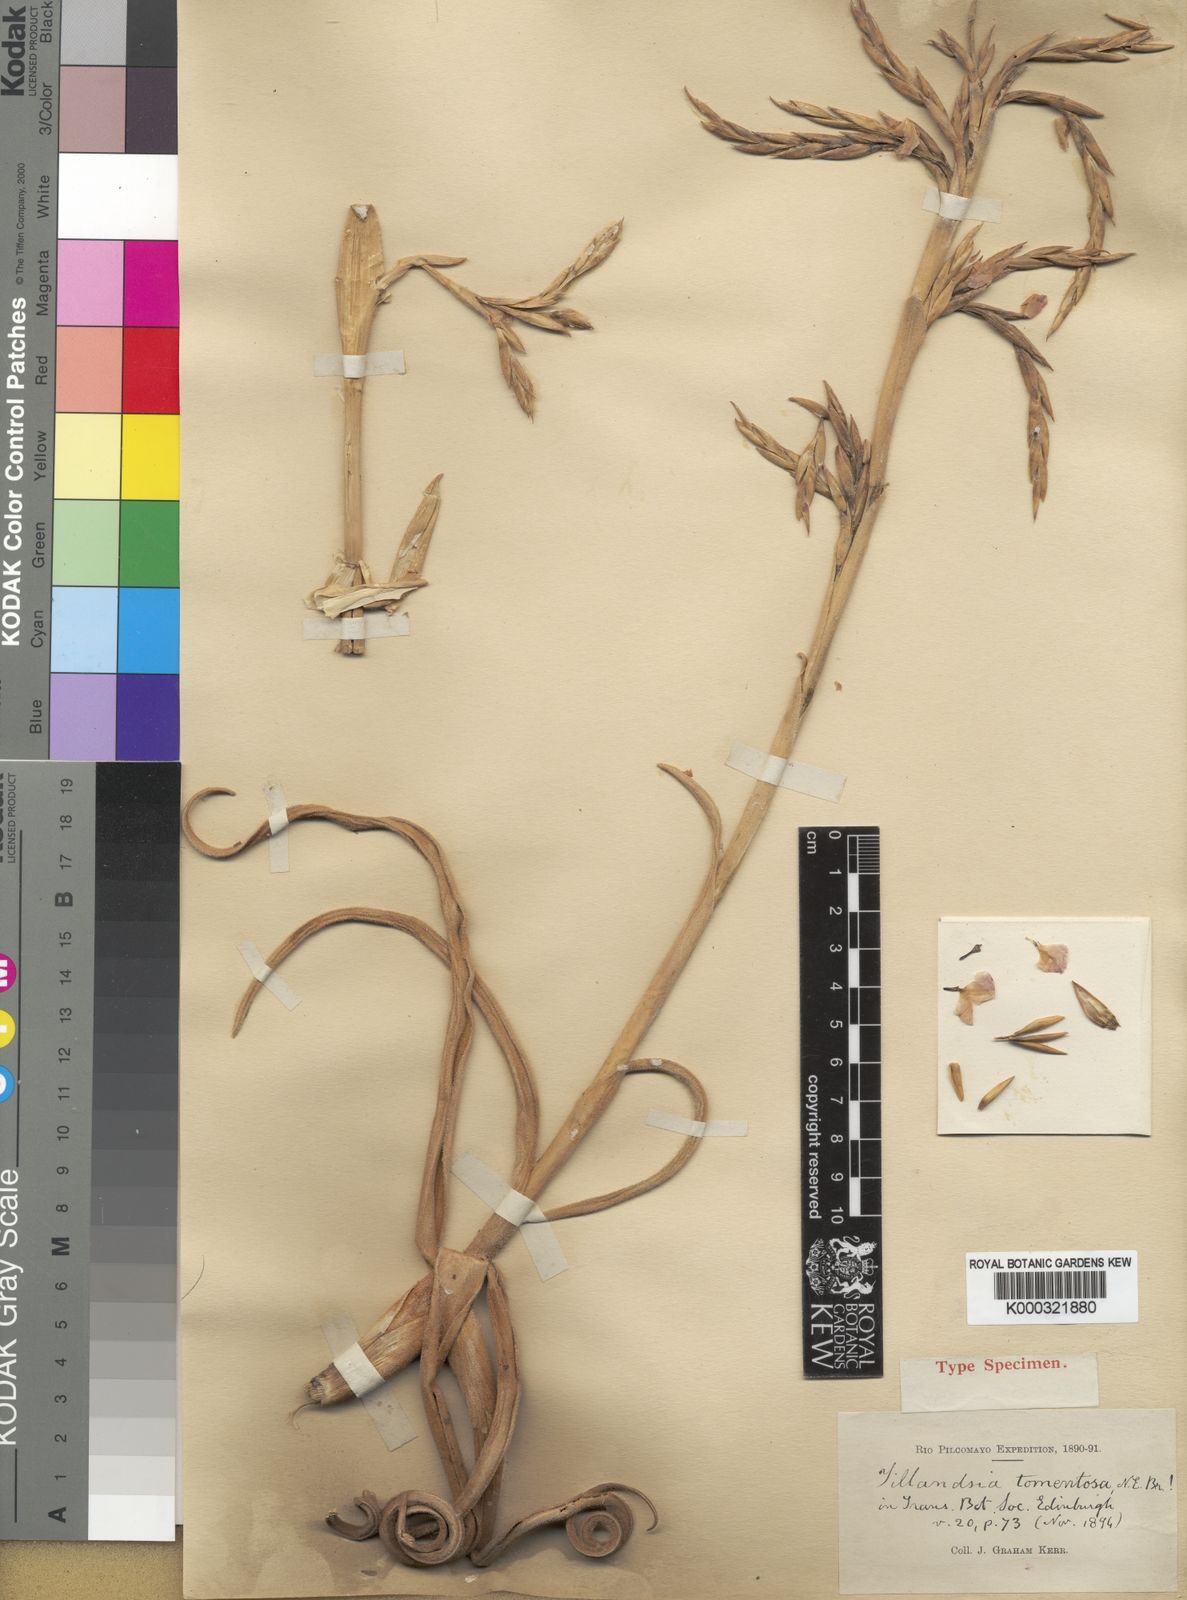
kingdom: Plantae
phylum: Tracheophyta
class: Liliopsida
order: Poales
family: Bromeliaceae
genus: Tillandsia
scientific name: Tillandsia duratii
